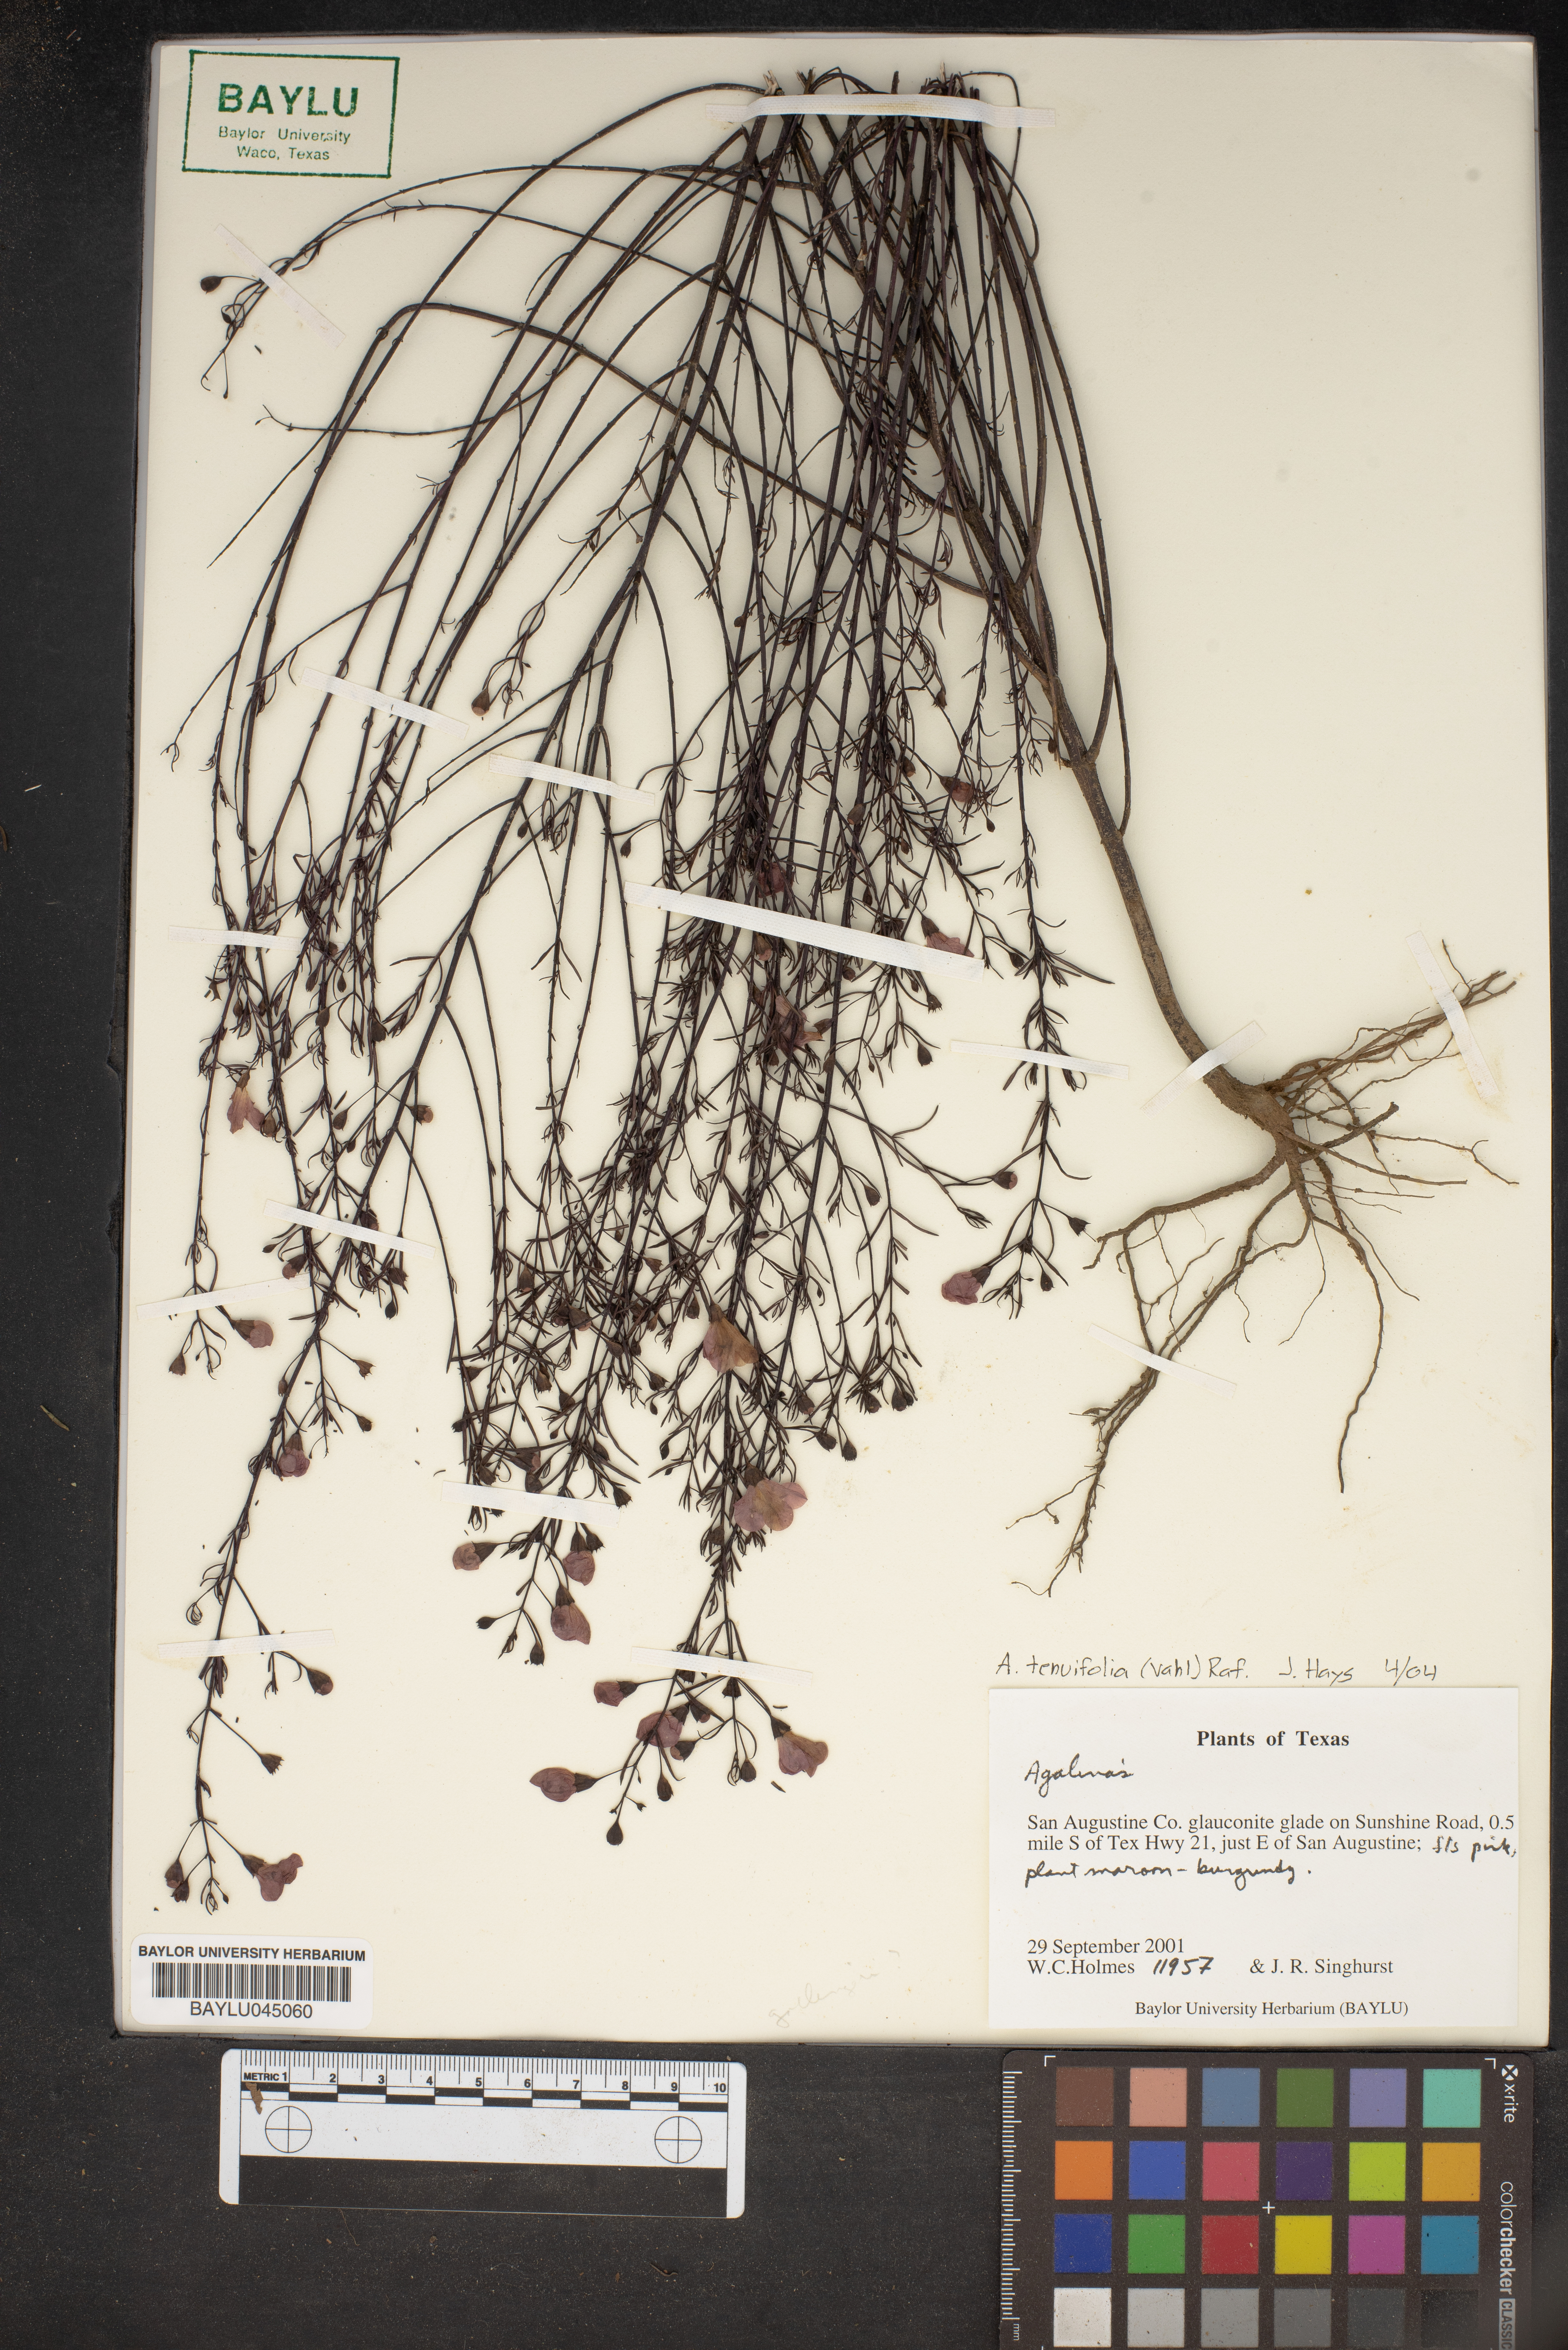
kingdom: Plantae
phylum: Tracheophyta
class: Magnoliopsida
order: Lamiales
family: Orobanchaceae
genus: Agalinis
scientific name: Agalinis tenuifolia
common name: Slender agalinis
